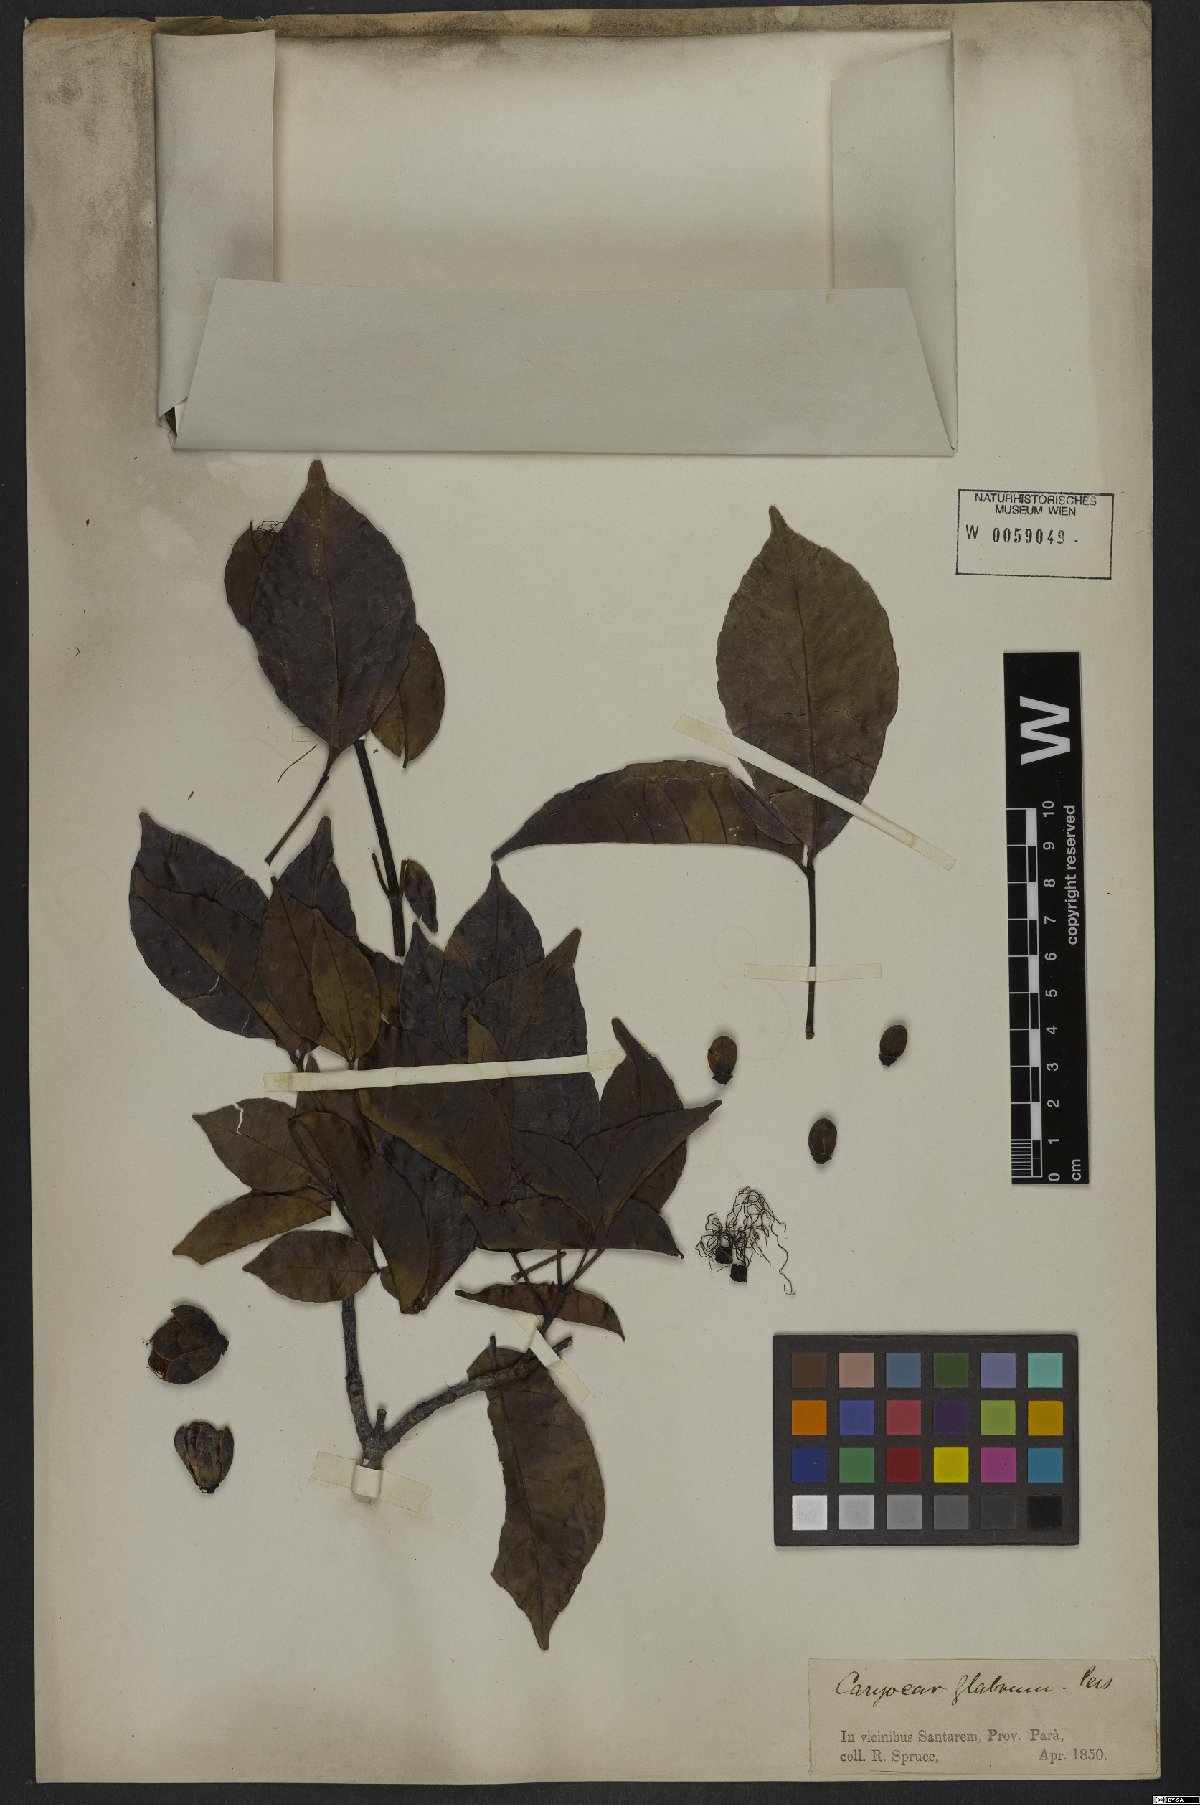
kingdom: Plantae
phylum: Tracheophyta
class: Magnoliopsida
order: Malpighiales
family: Caryocaraceae
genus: Caryocar
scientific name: Caryocar glabrum
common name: Bat's souari
